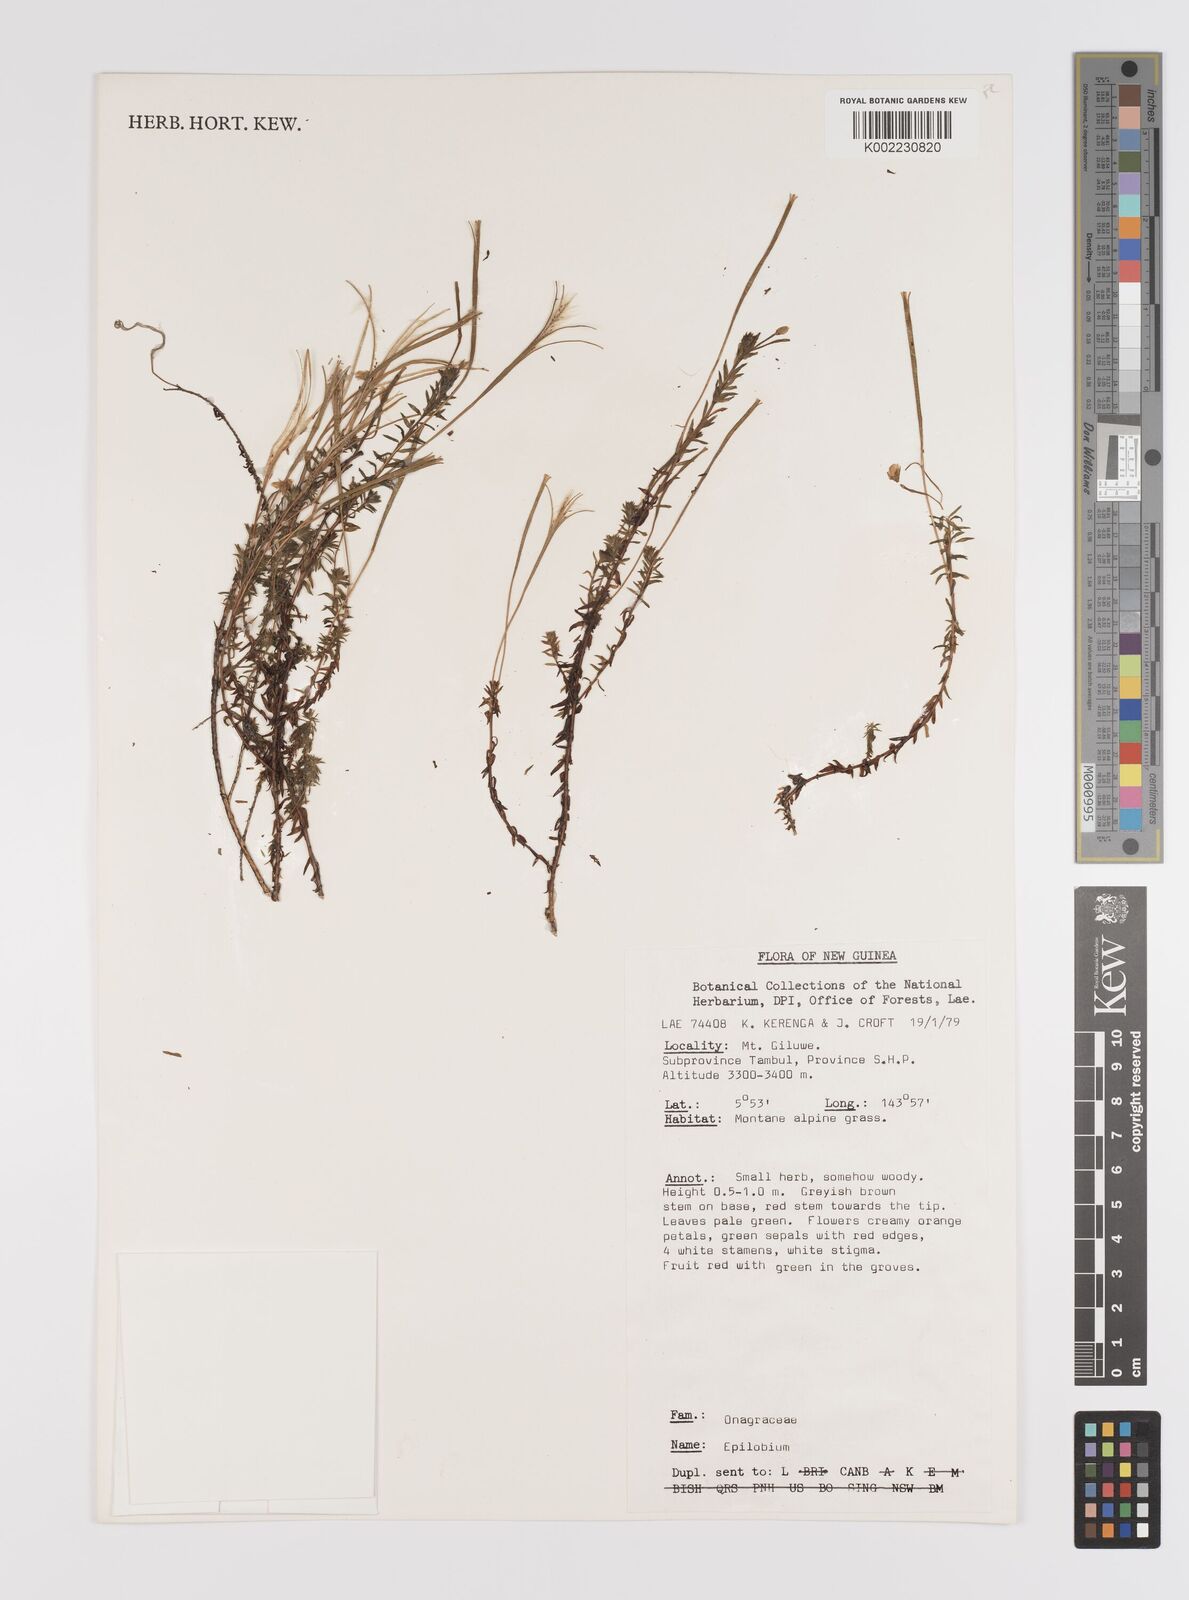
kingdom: Plantae
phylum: Tracheophyta
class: Magnoliopsida
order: Myrtales
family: Onagraceae
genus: Epilobium
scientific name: Epilobium
